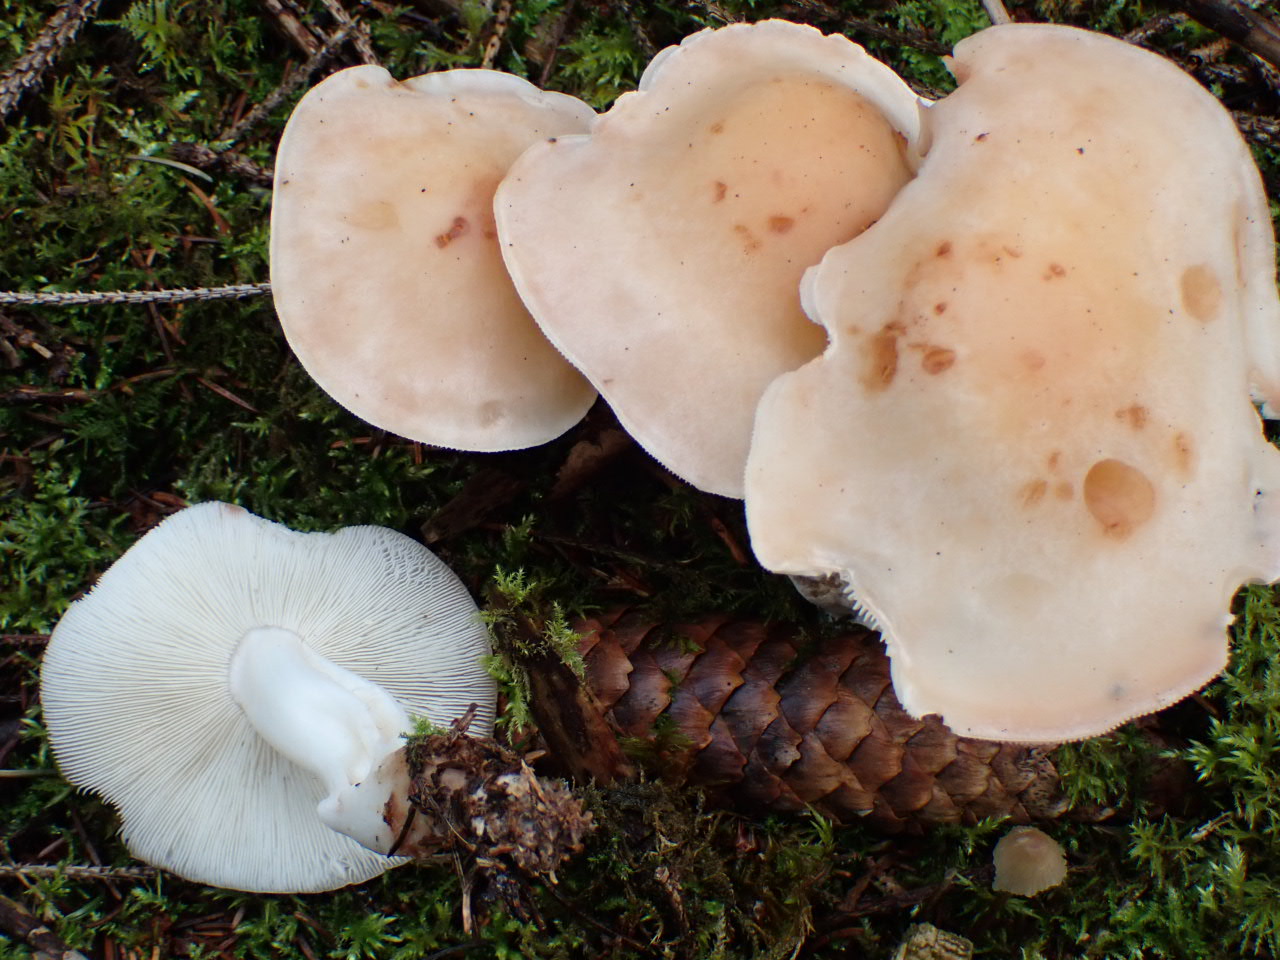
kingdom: Fungi
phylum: Basidiomycota
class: Agaricomycetes
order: Agaricales
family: Omphalotaceae
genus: Rhodocollybia
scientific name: Rhodocollybia maculata
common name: plettet fladhat
